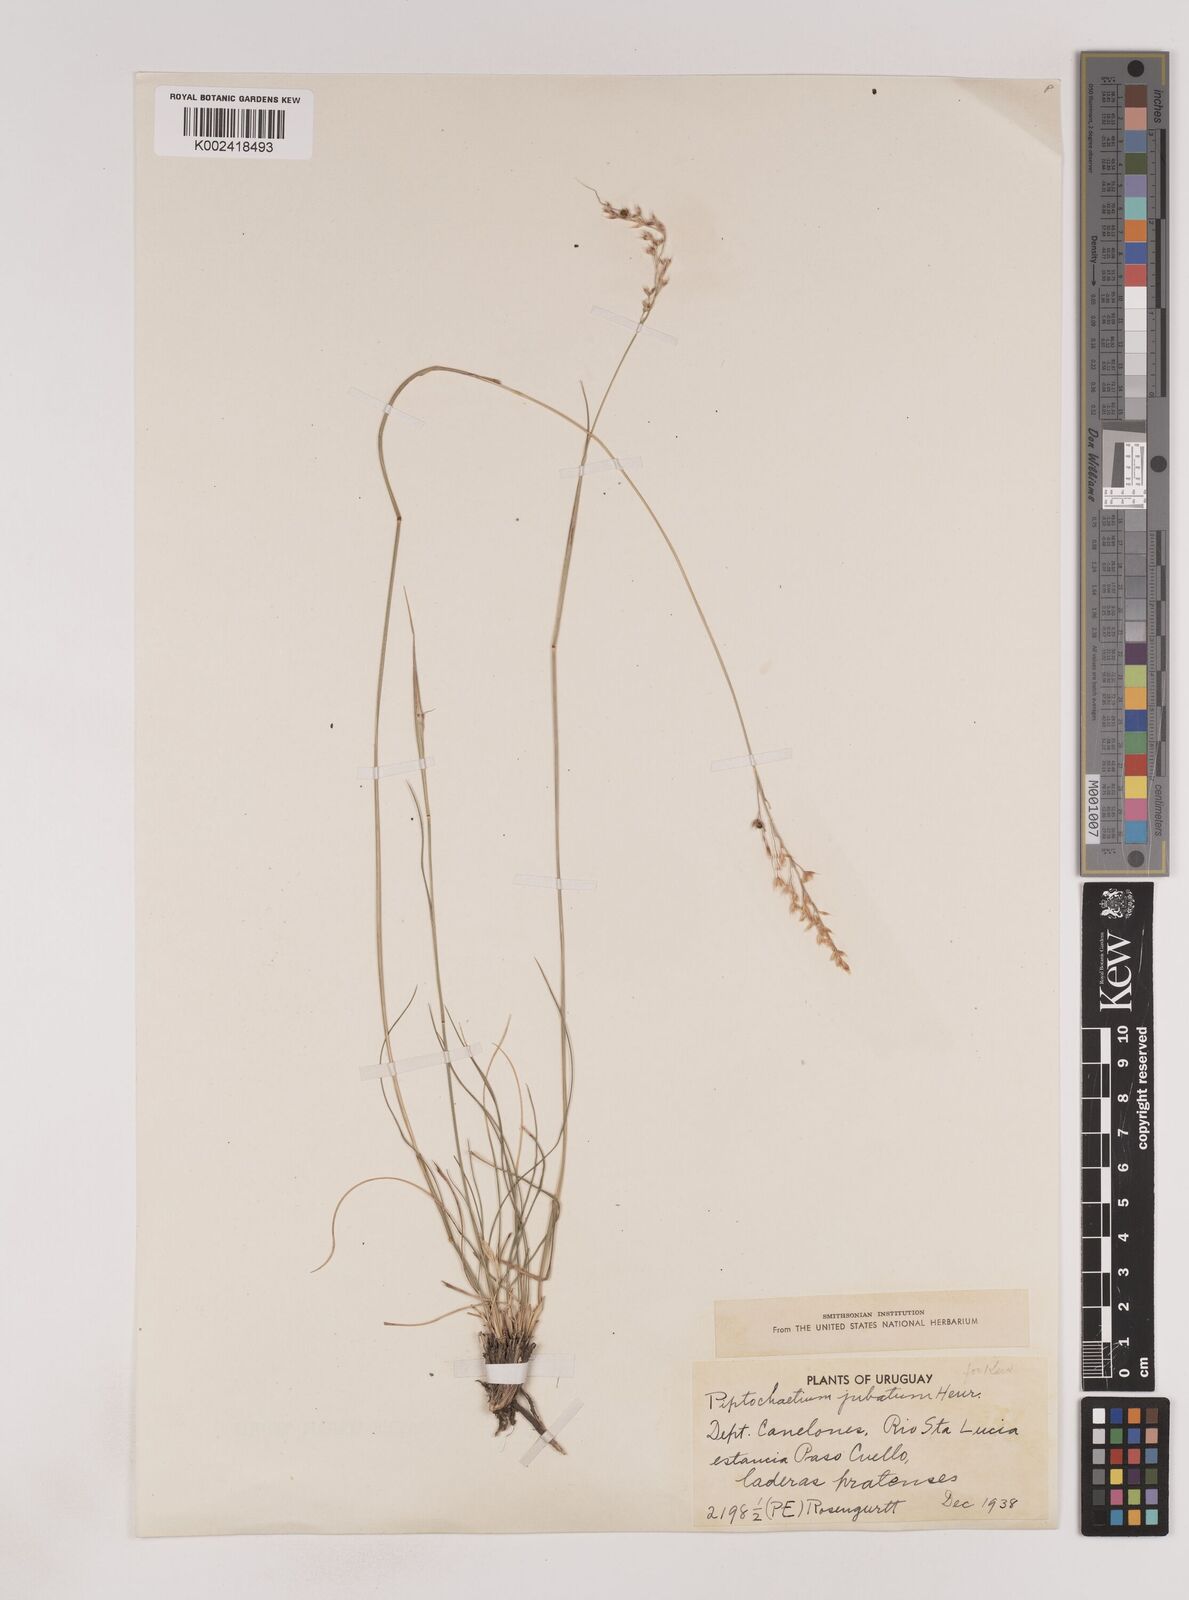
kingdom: Plantae
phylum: Tracheophyta
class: Liliopsida
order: Poales
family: Poaceae
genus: Piptochaetium
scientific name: Piptochaetium jubatum
